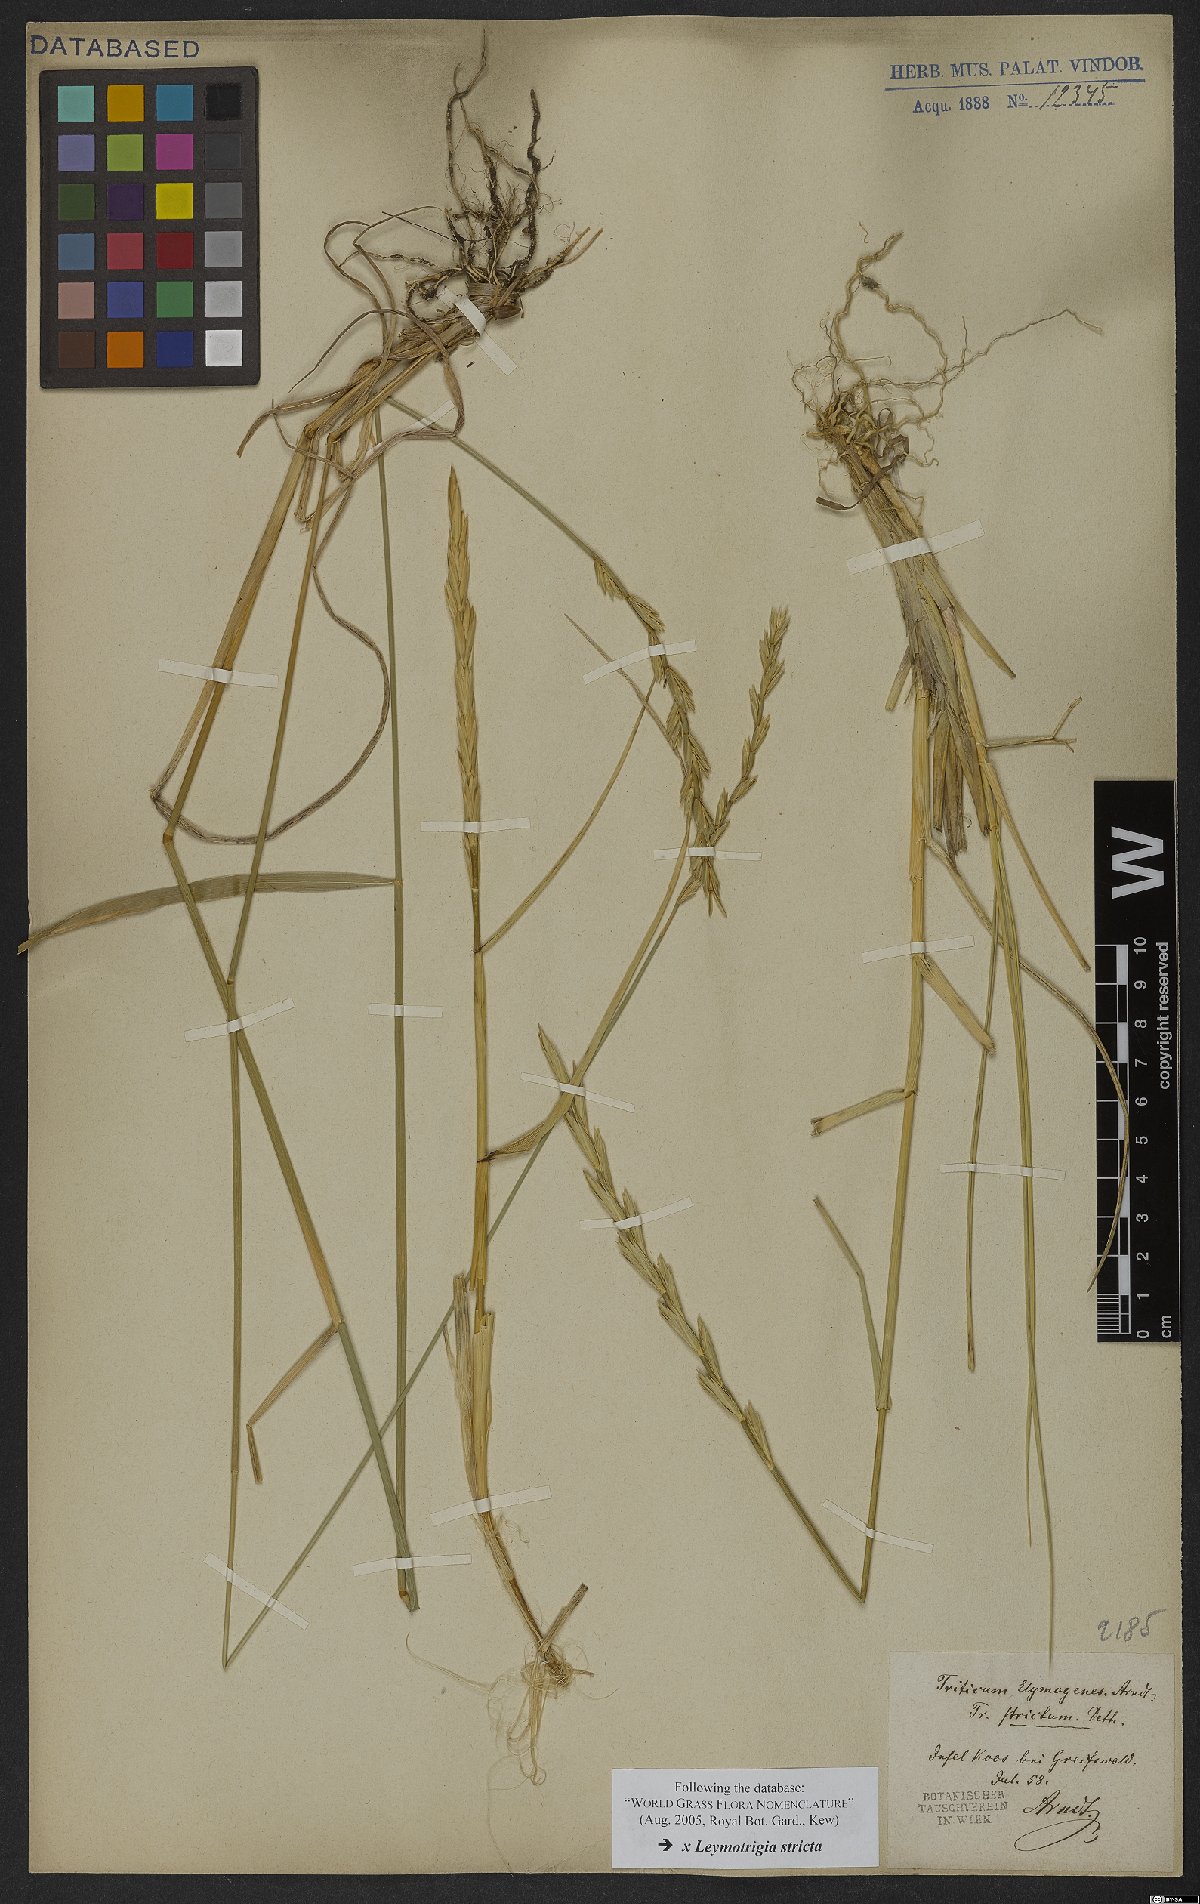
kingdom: Plantae
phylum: Tracheophyta
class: Liliopsida
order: Poales
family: Poaceae
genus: Elyleymus
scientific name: Elyleymus strictus
